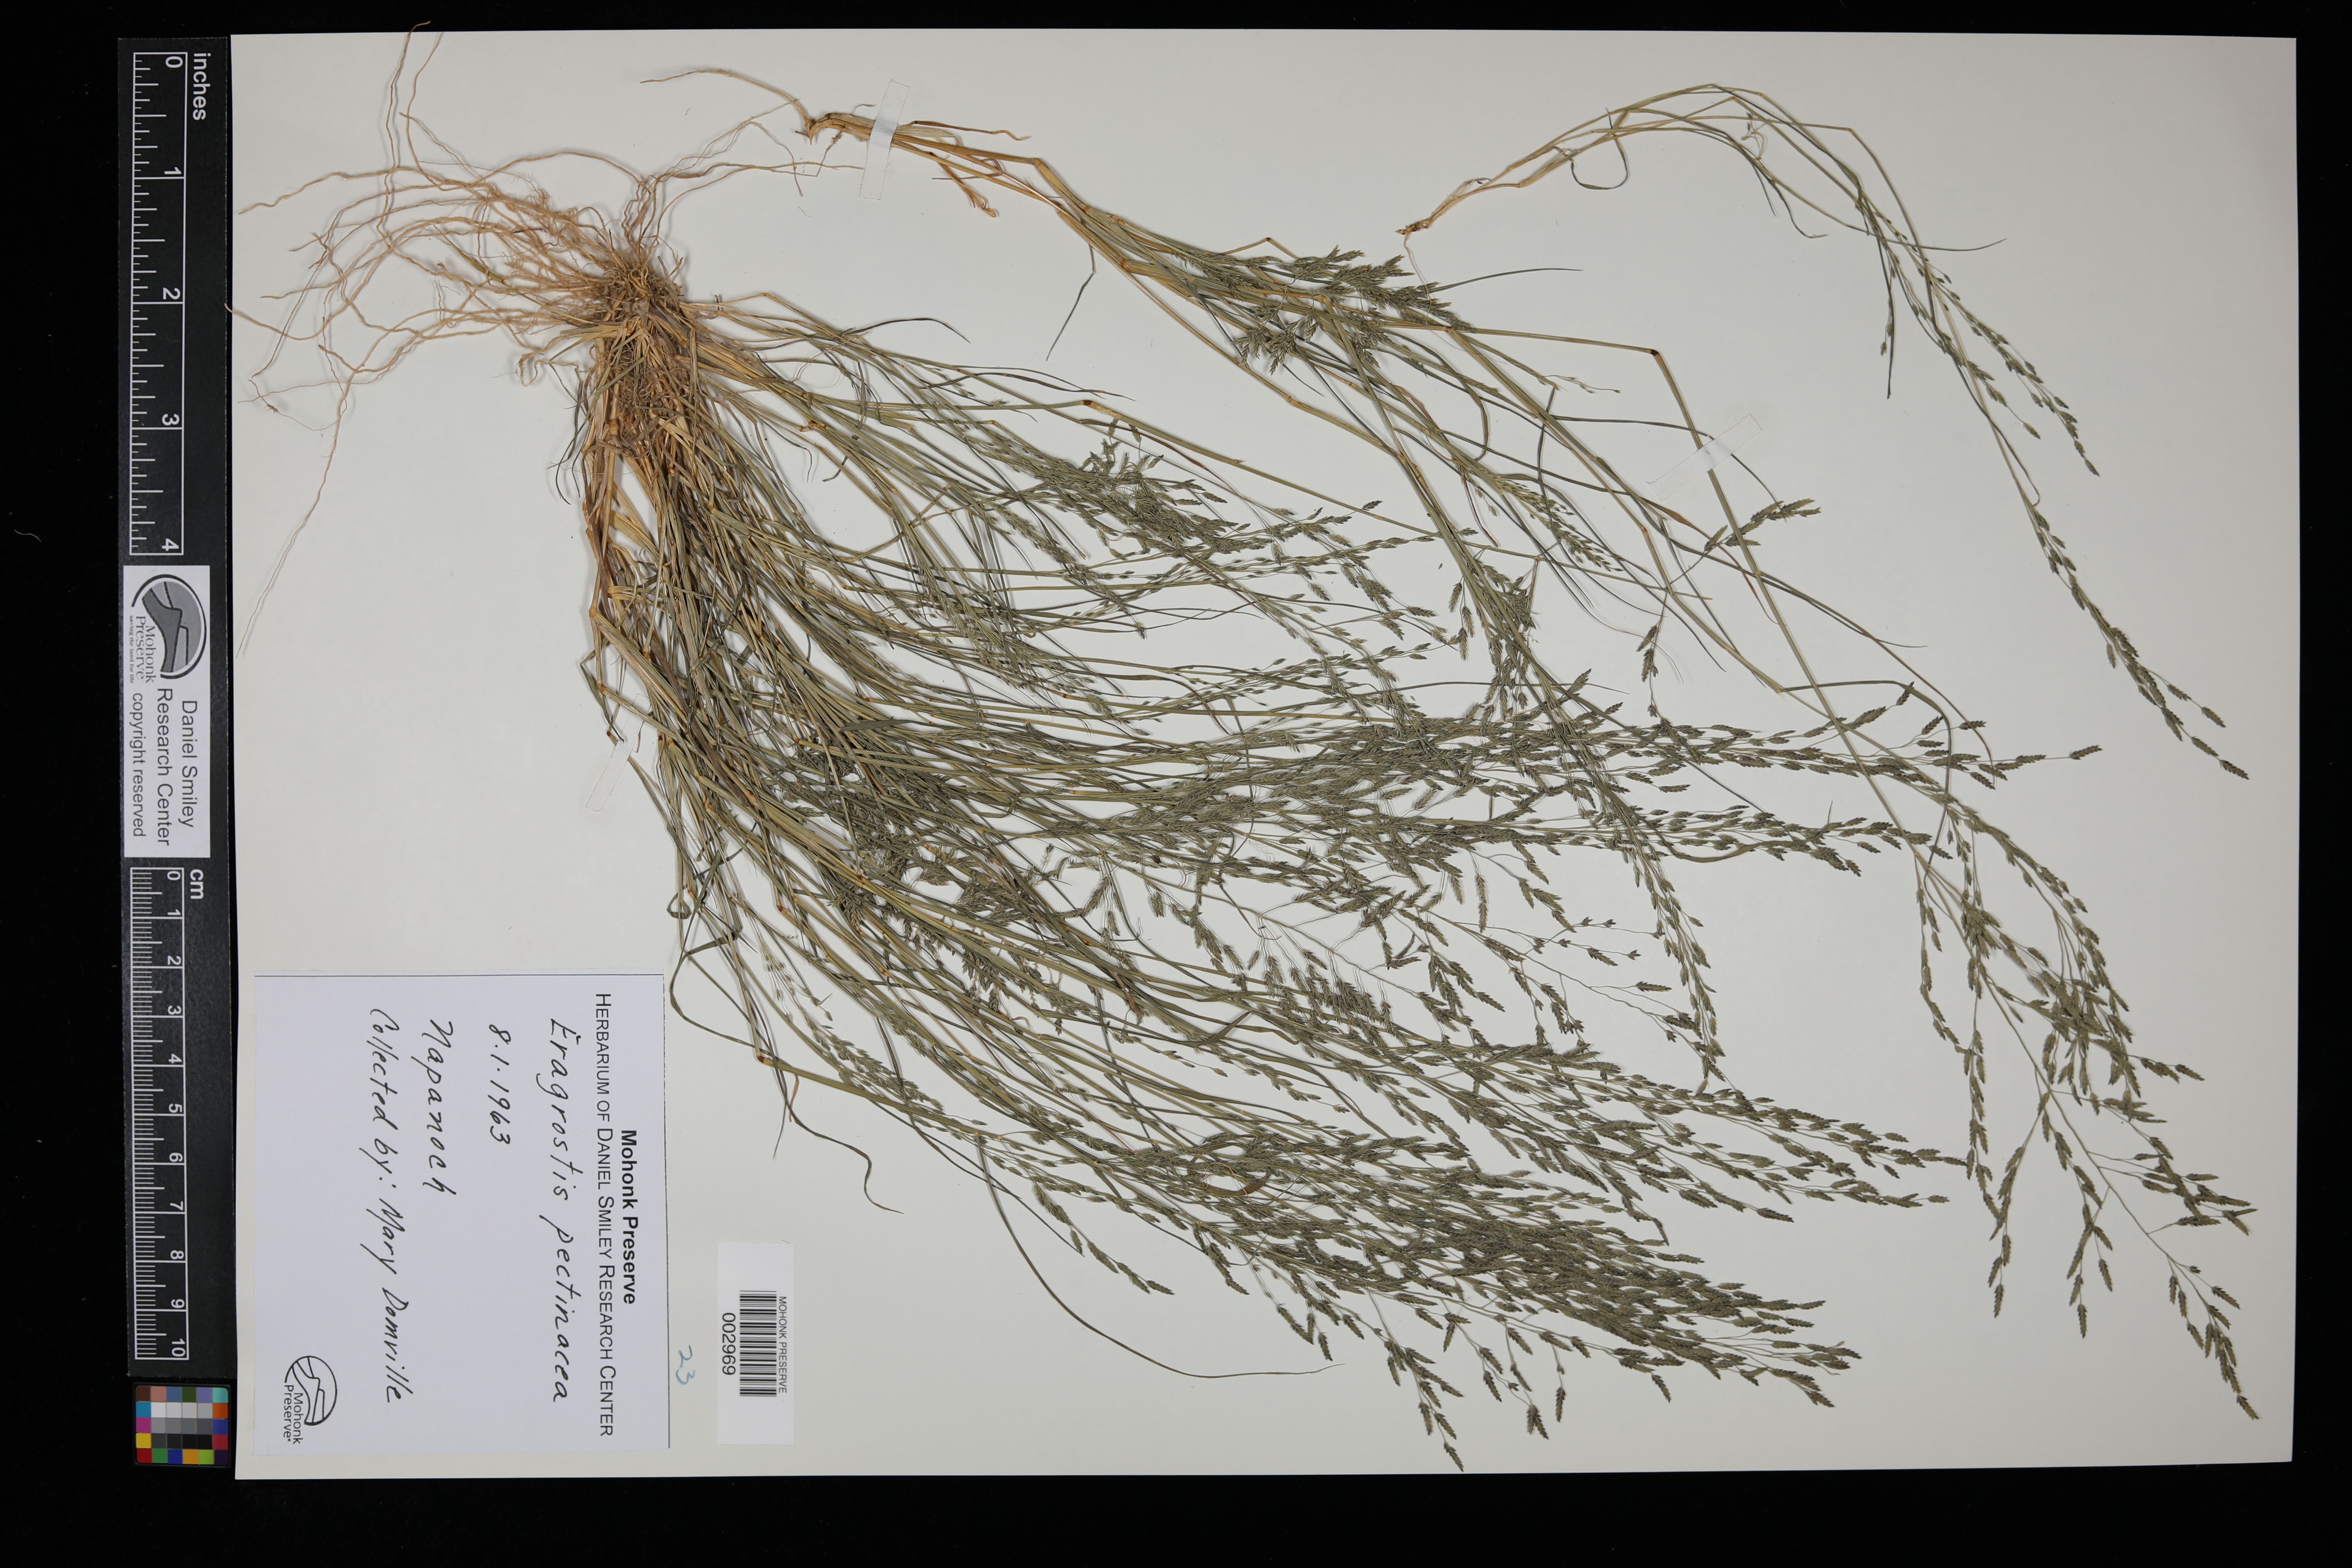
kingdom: Plantae
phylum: Tracheophyta
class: Liliopsida
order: Poales
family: Poaceae
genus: Eragrostis
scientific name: Eragrostis pectinacea
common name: Tufted lovegrass
